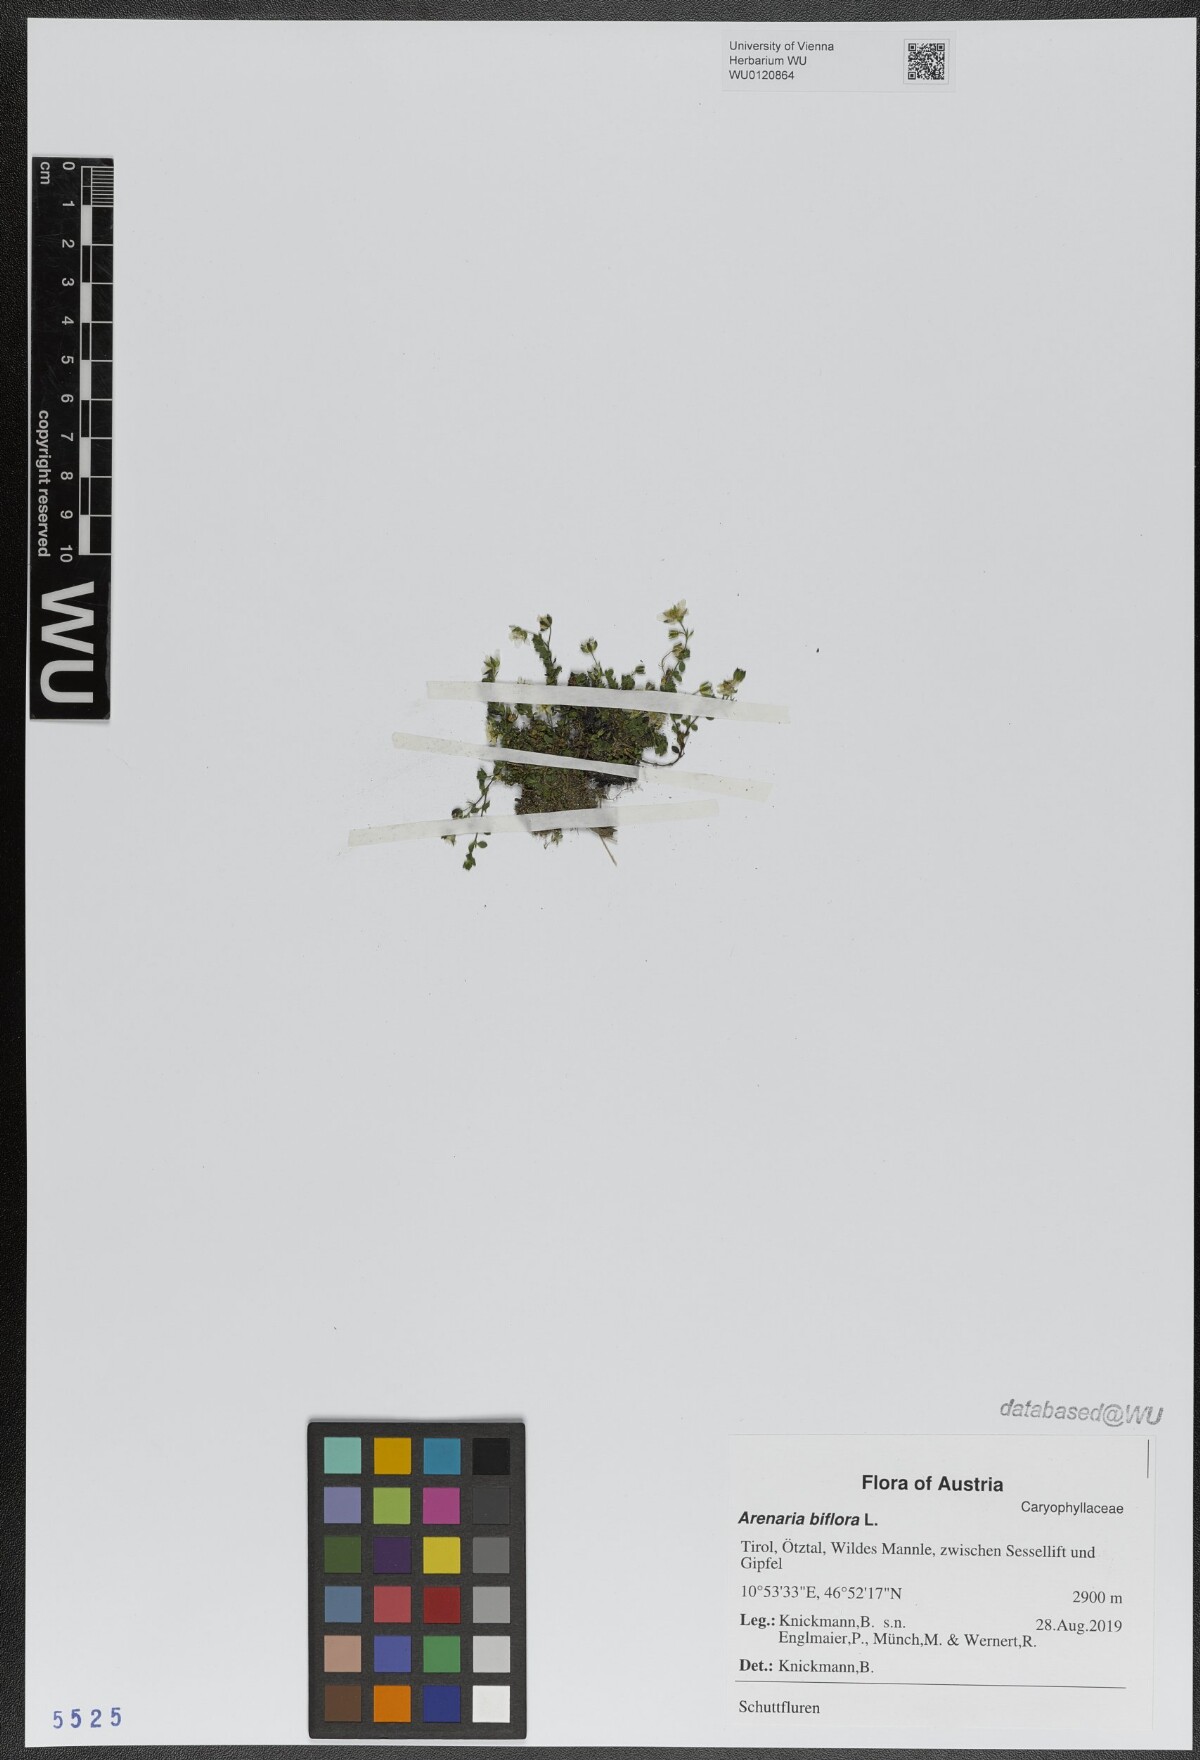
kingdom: Plantae
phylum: Tracheophyta
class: Magnoliopsida
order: Caryophyllales
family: Caryophyllaceae
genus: Arenaria
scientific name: Arenaria biflora
